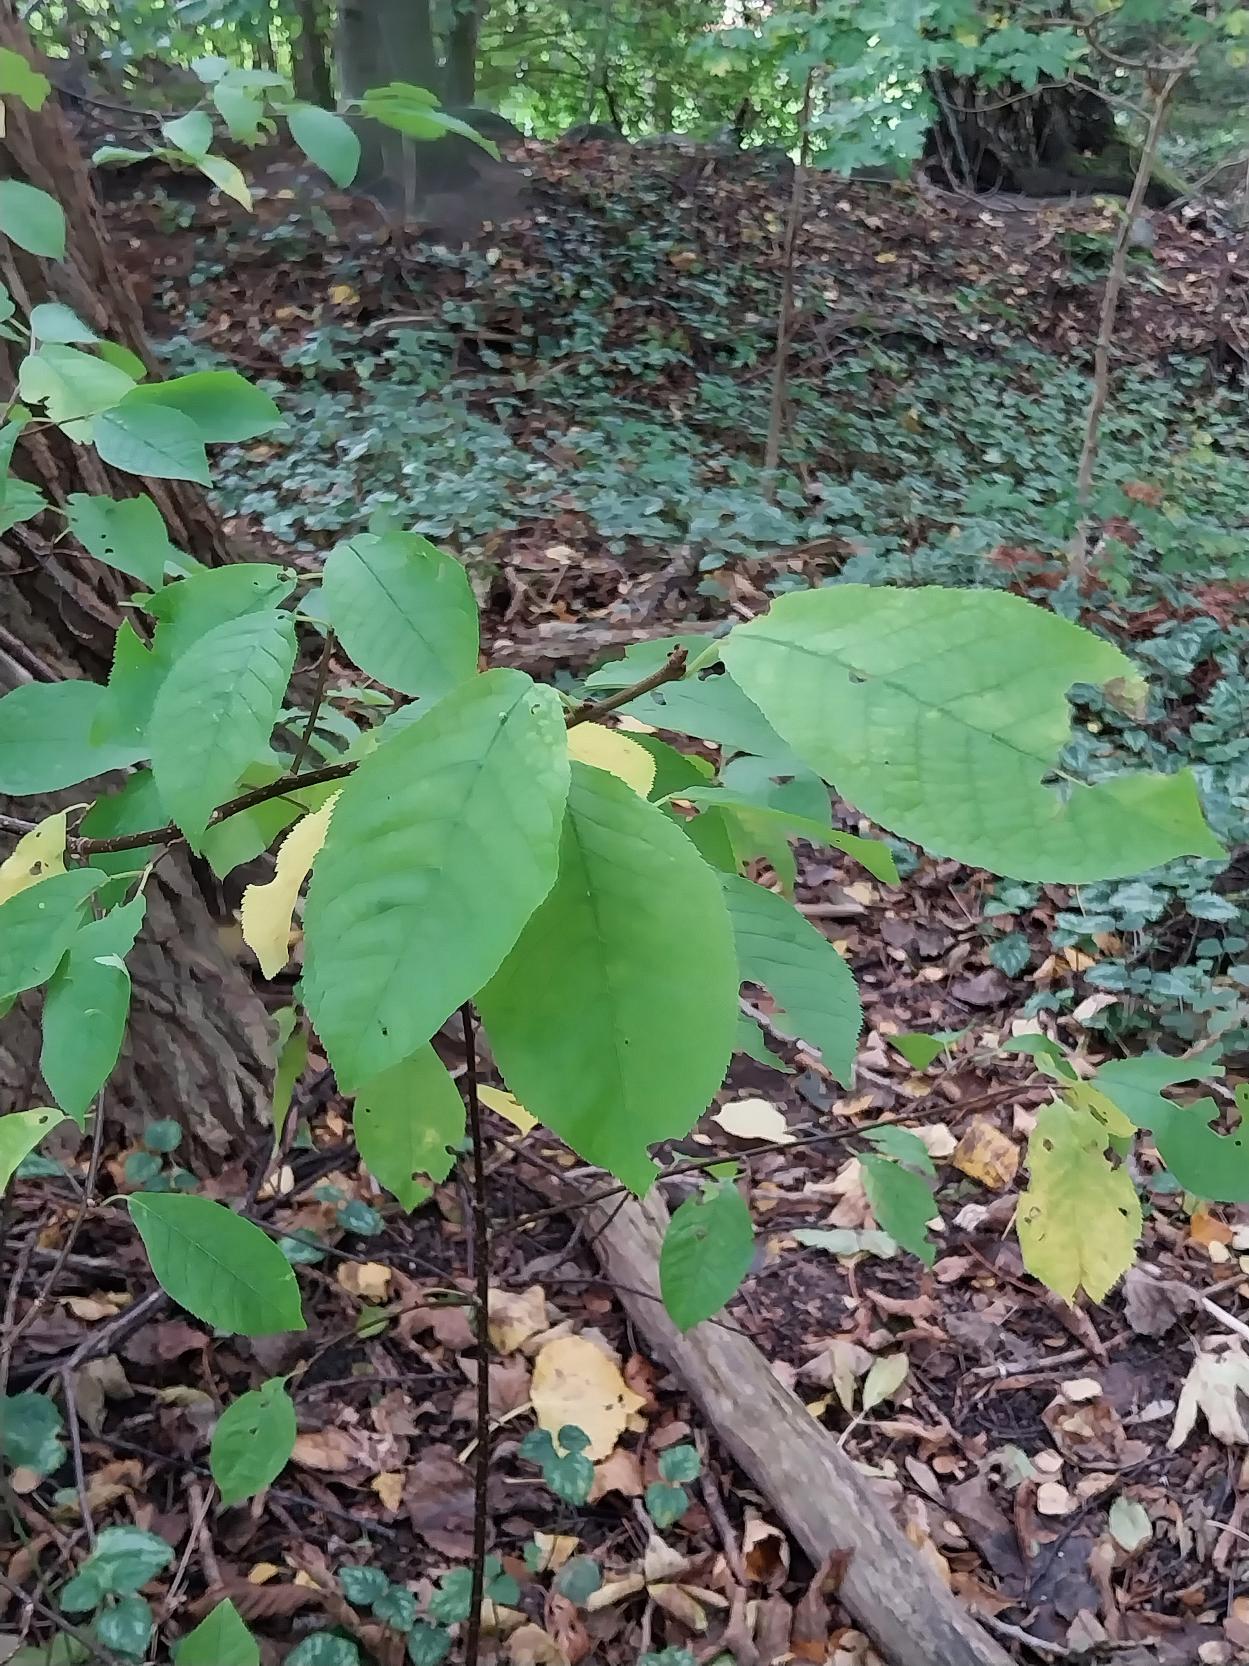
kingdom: Plantae
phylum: Tracheophyta
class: Magnoliopsida
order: Rosales
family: Rosaceae
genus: Prunus
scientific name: Prunus padus
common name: Almindelig hæg
